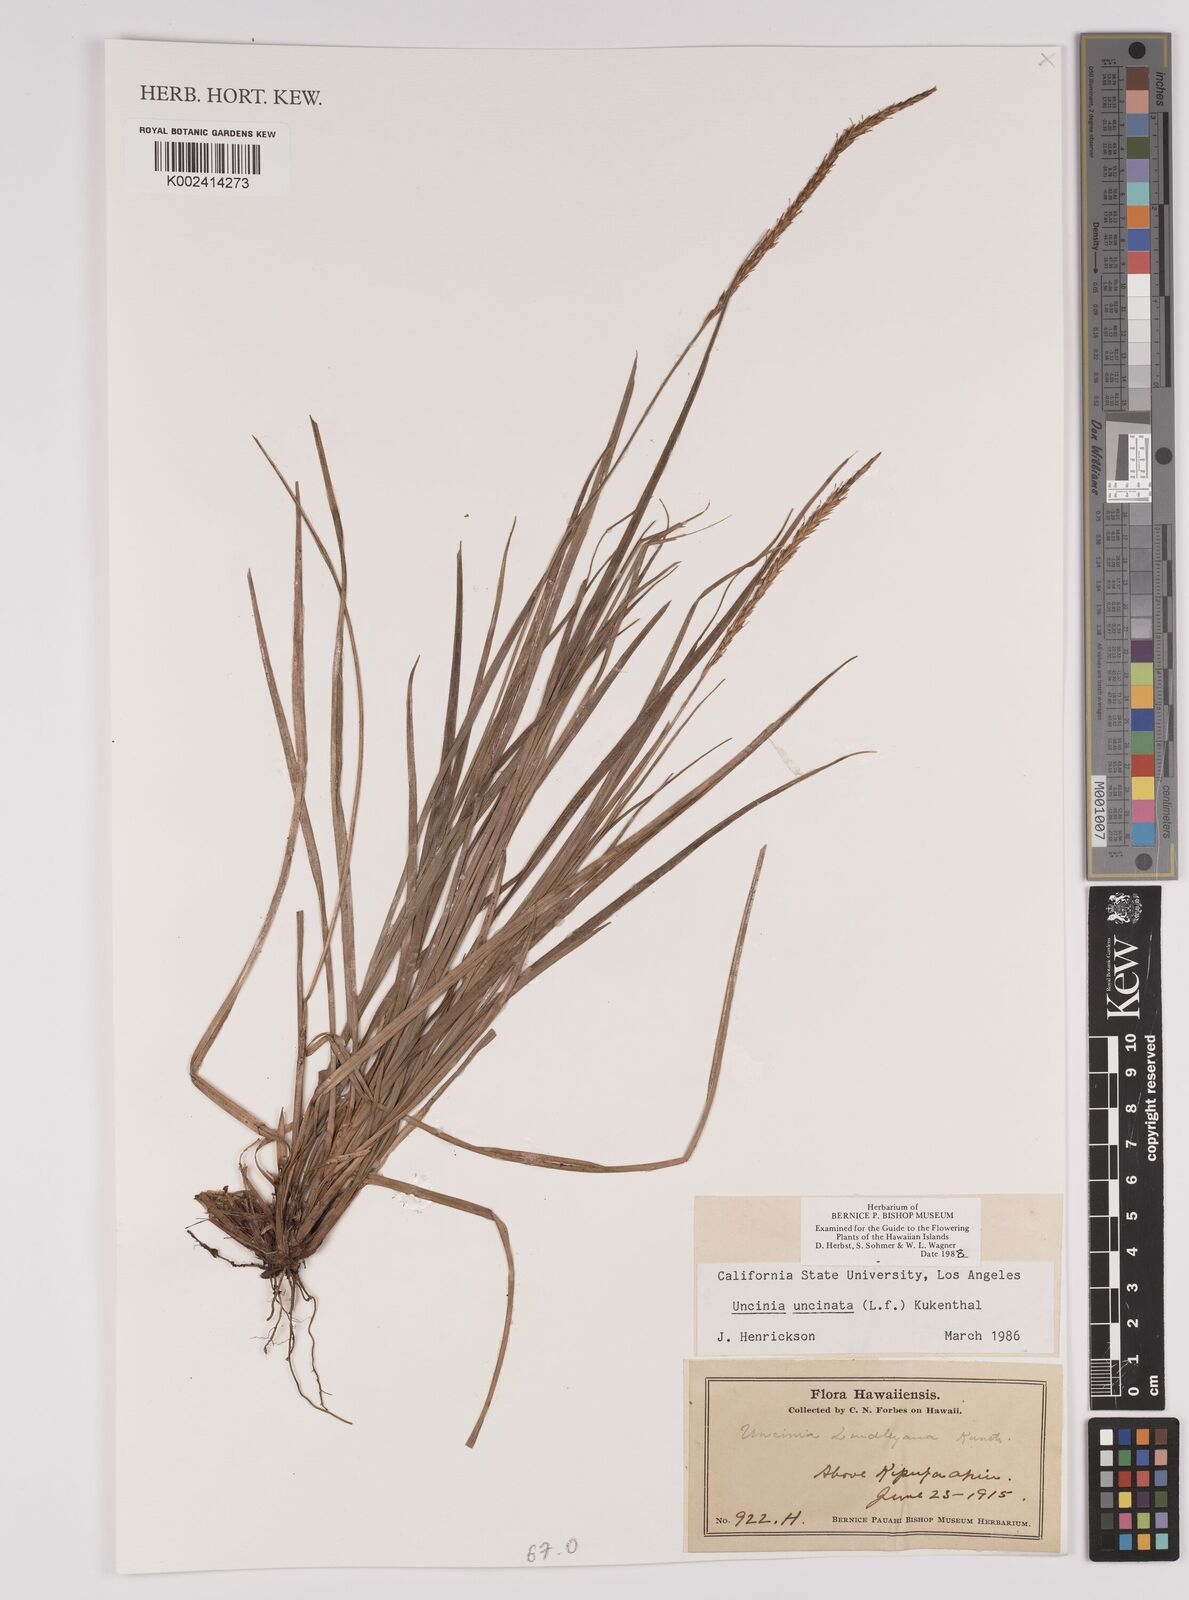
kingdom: Plantae
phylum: Tracheophyta
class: Liliopsida
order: Poales
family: Cyperaceae
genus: Carex
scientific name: Carex uncinata
